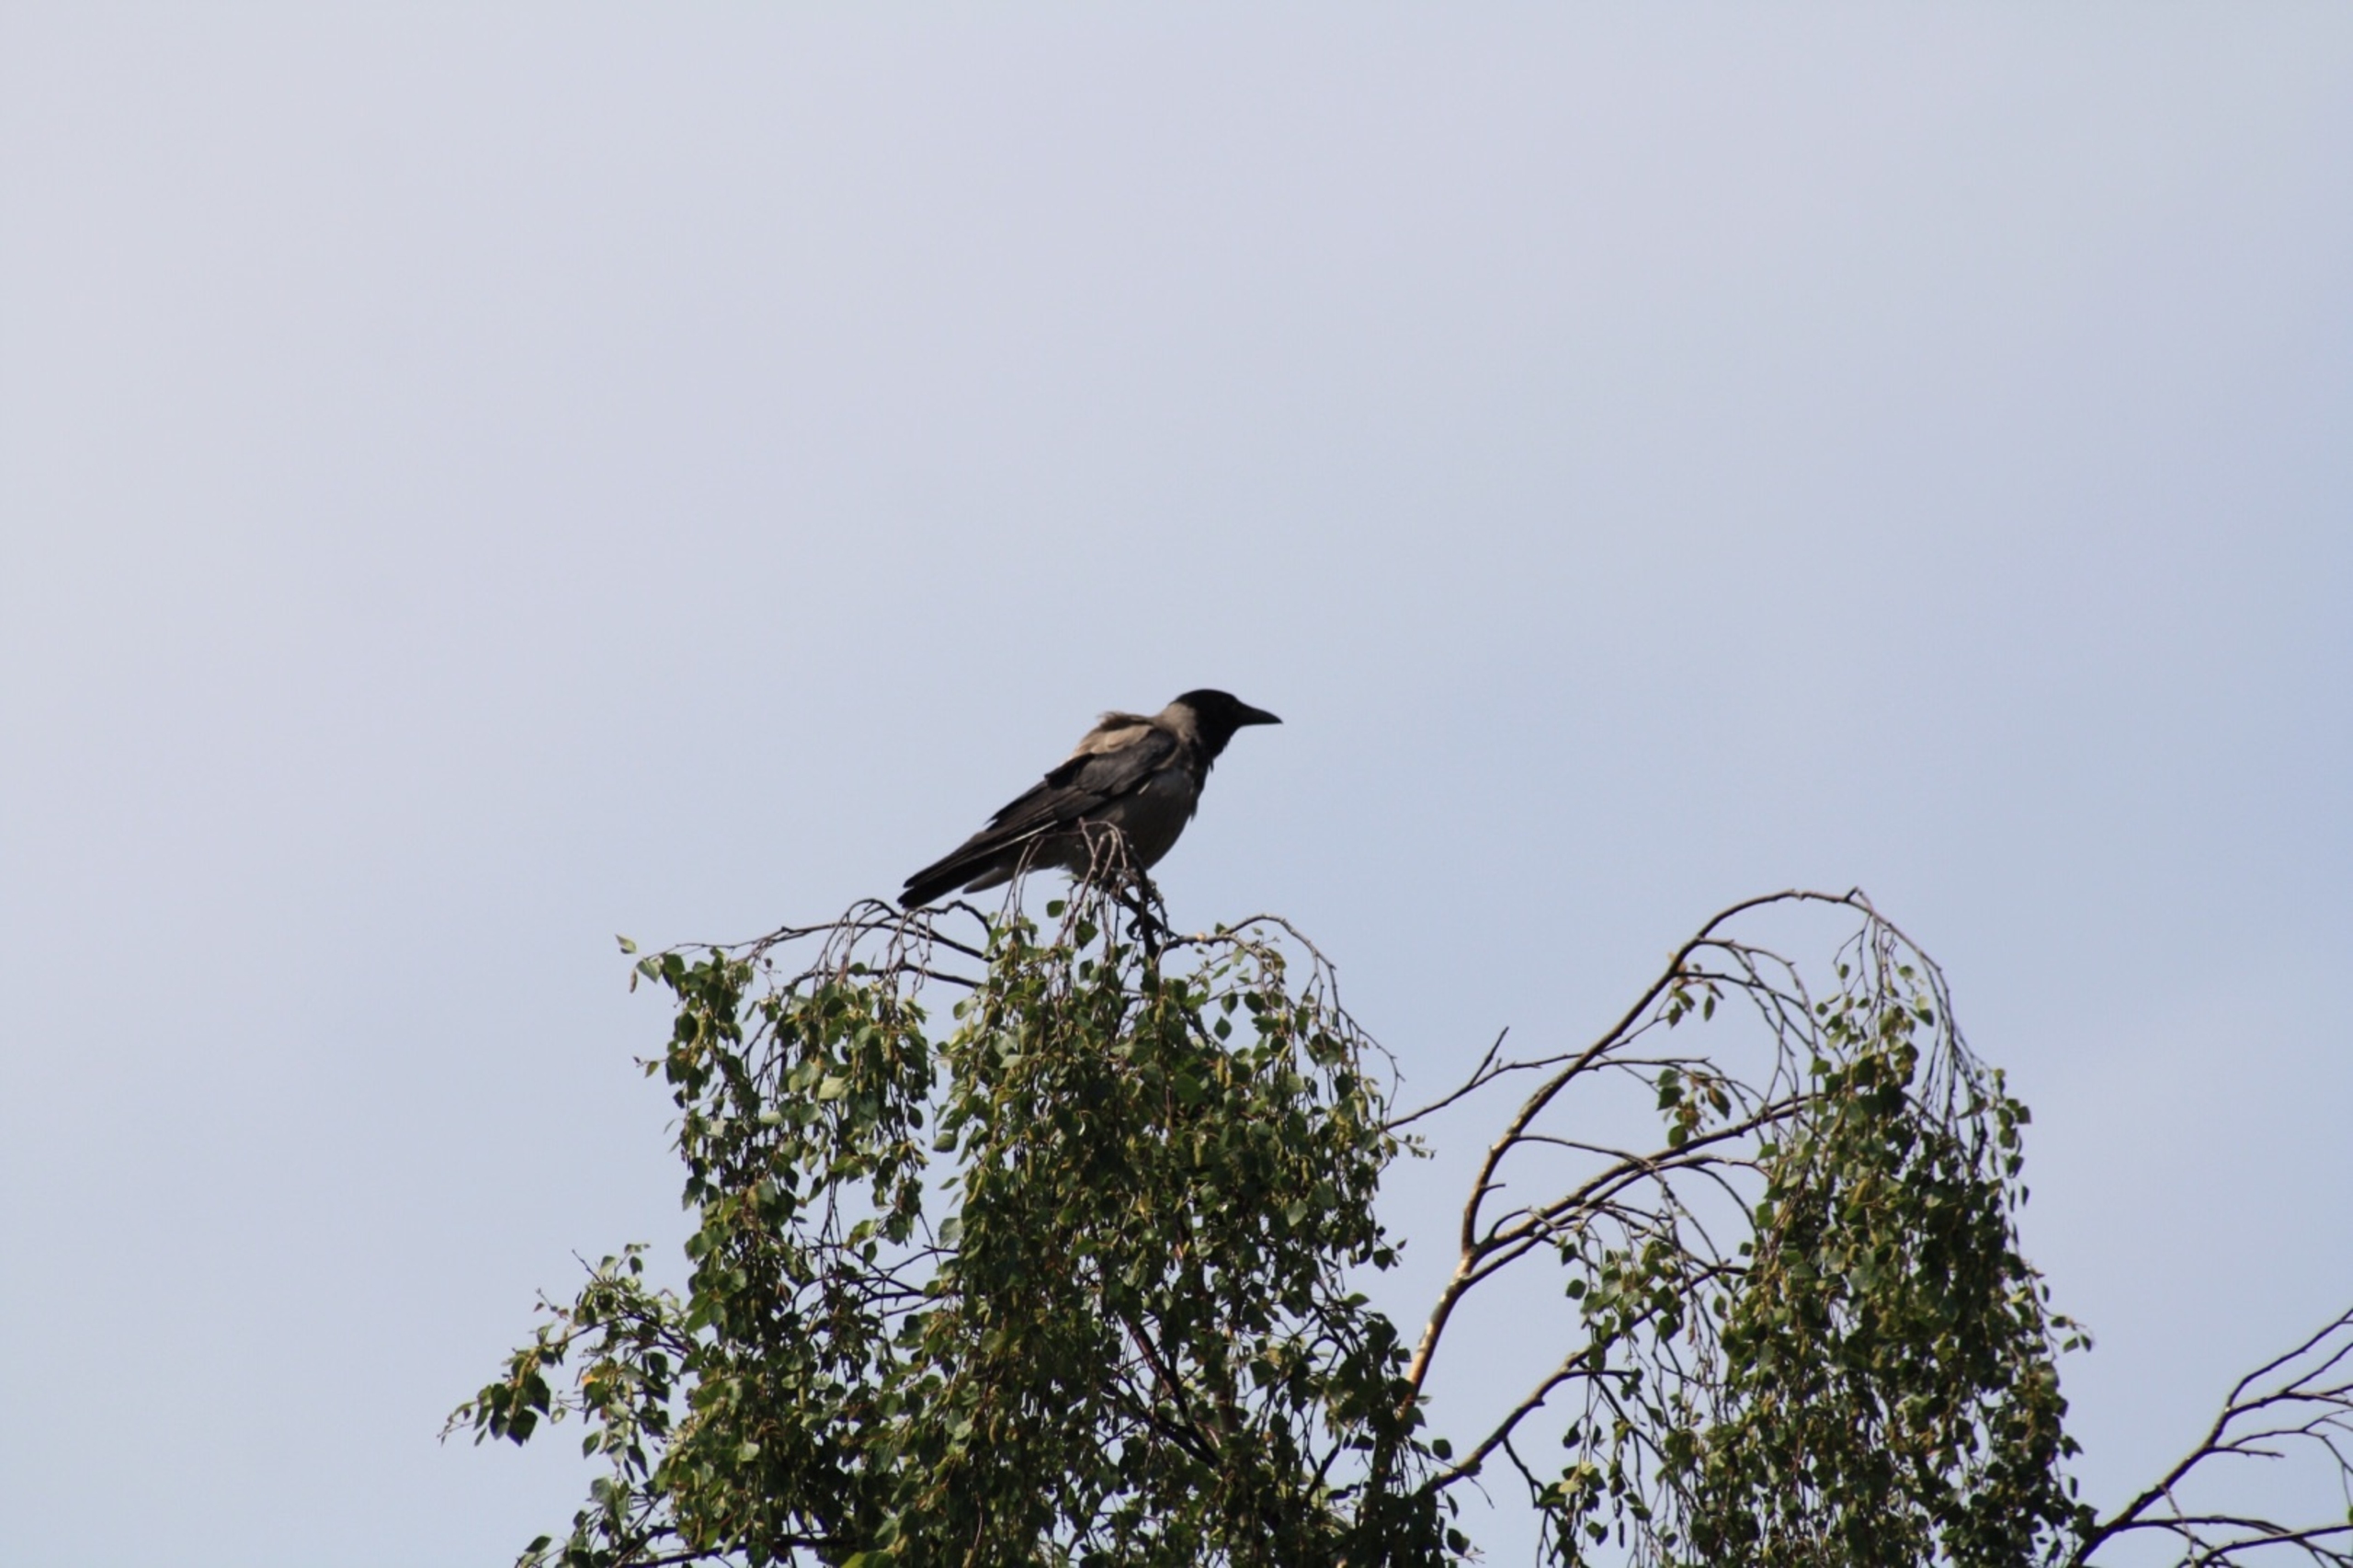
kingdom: Animalia
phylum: Chordata
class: Aves
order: Passeriformes
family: Corvidae
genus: Corvus
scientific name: Corvus cornix
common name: Gråkrage
